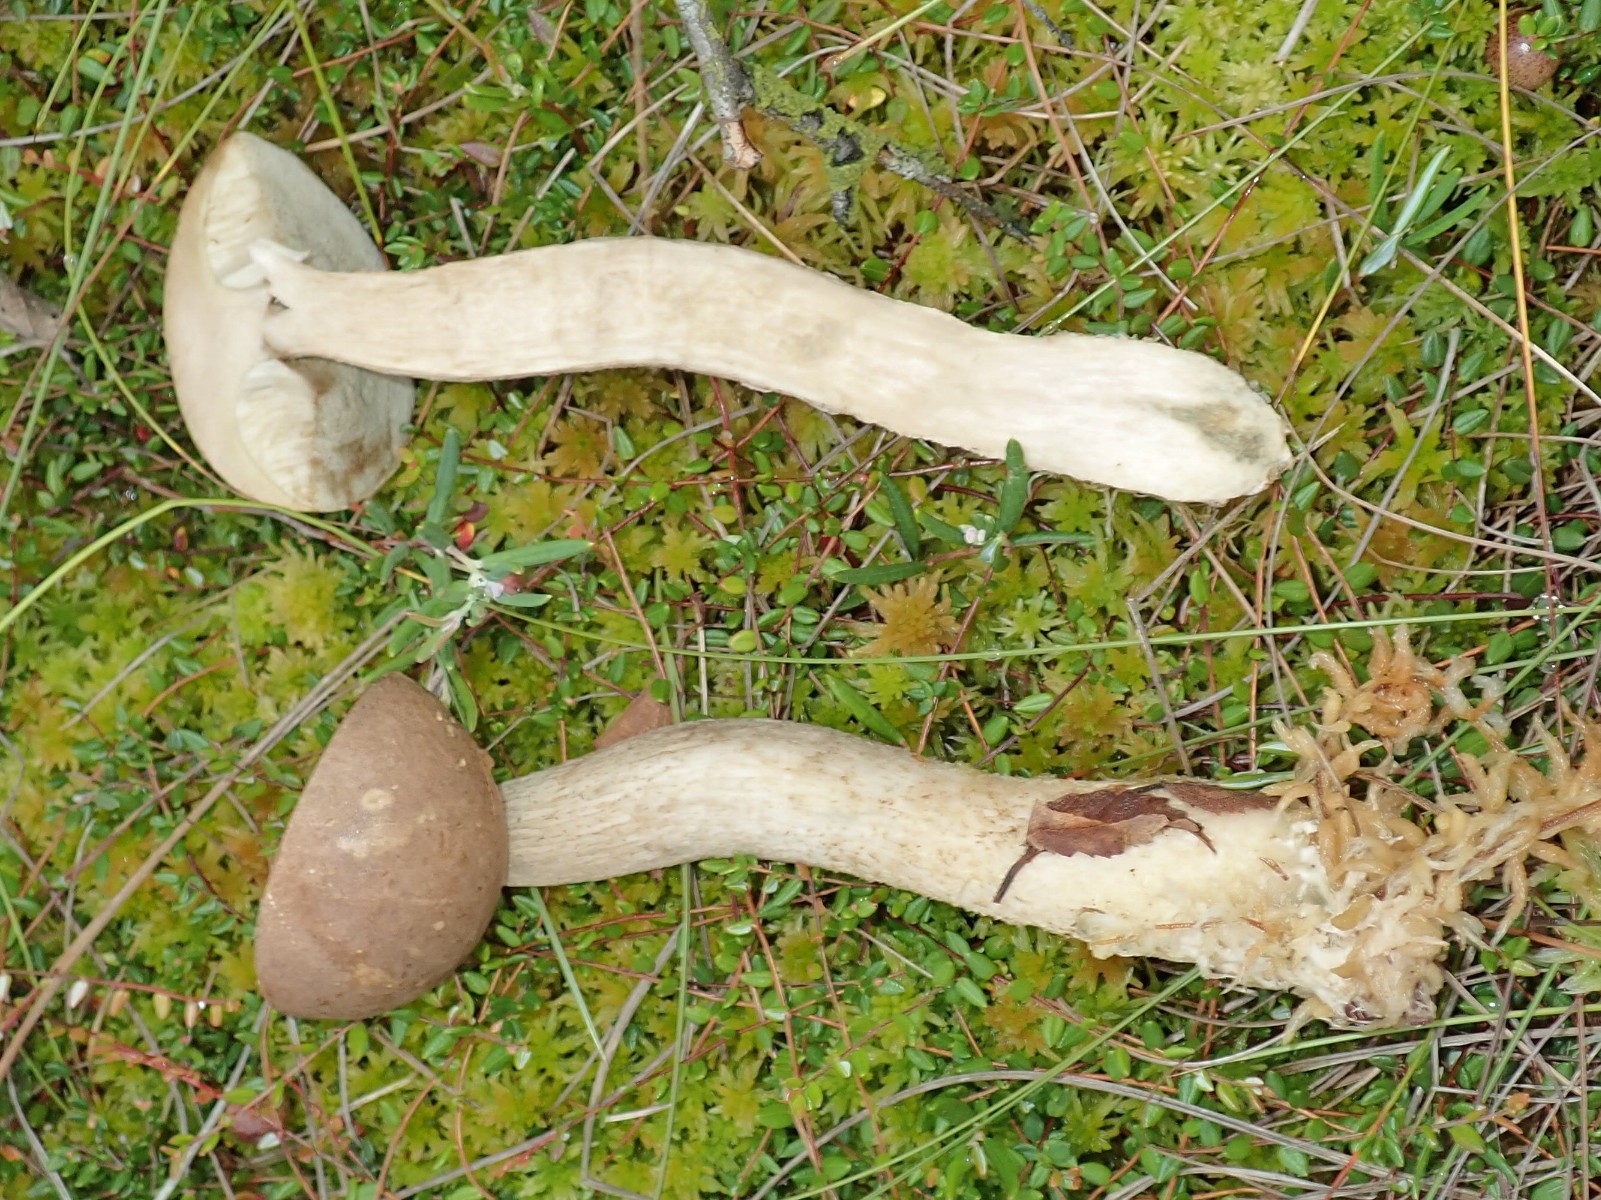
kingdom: Fungi
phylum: Basidiomycota
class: Agaricomycetes
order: Boletales
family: Boletaceae
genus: Leccinum
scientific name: Leccinum
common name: skælrørhat
